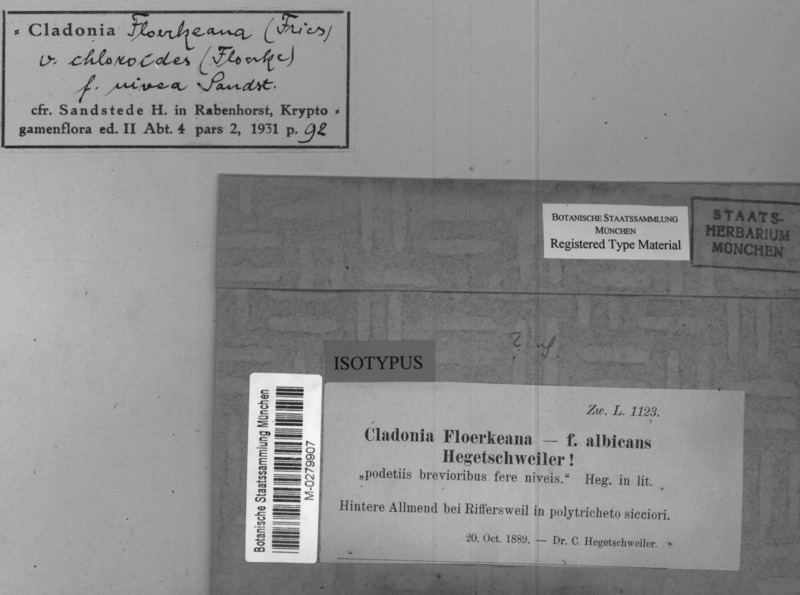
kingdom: Fungi
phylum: Ascomycota
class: Lecanoromycetes
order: Lecanorales
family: Cladoniaceae
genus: Cladonia
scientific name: Cladonia floerkeana
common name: Gritty british soldiers lichen
